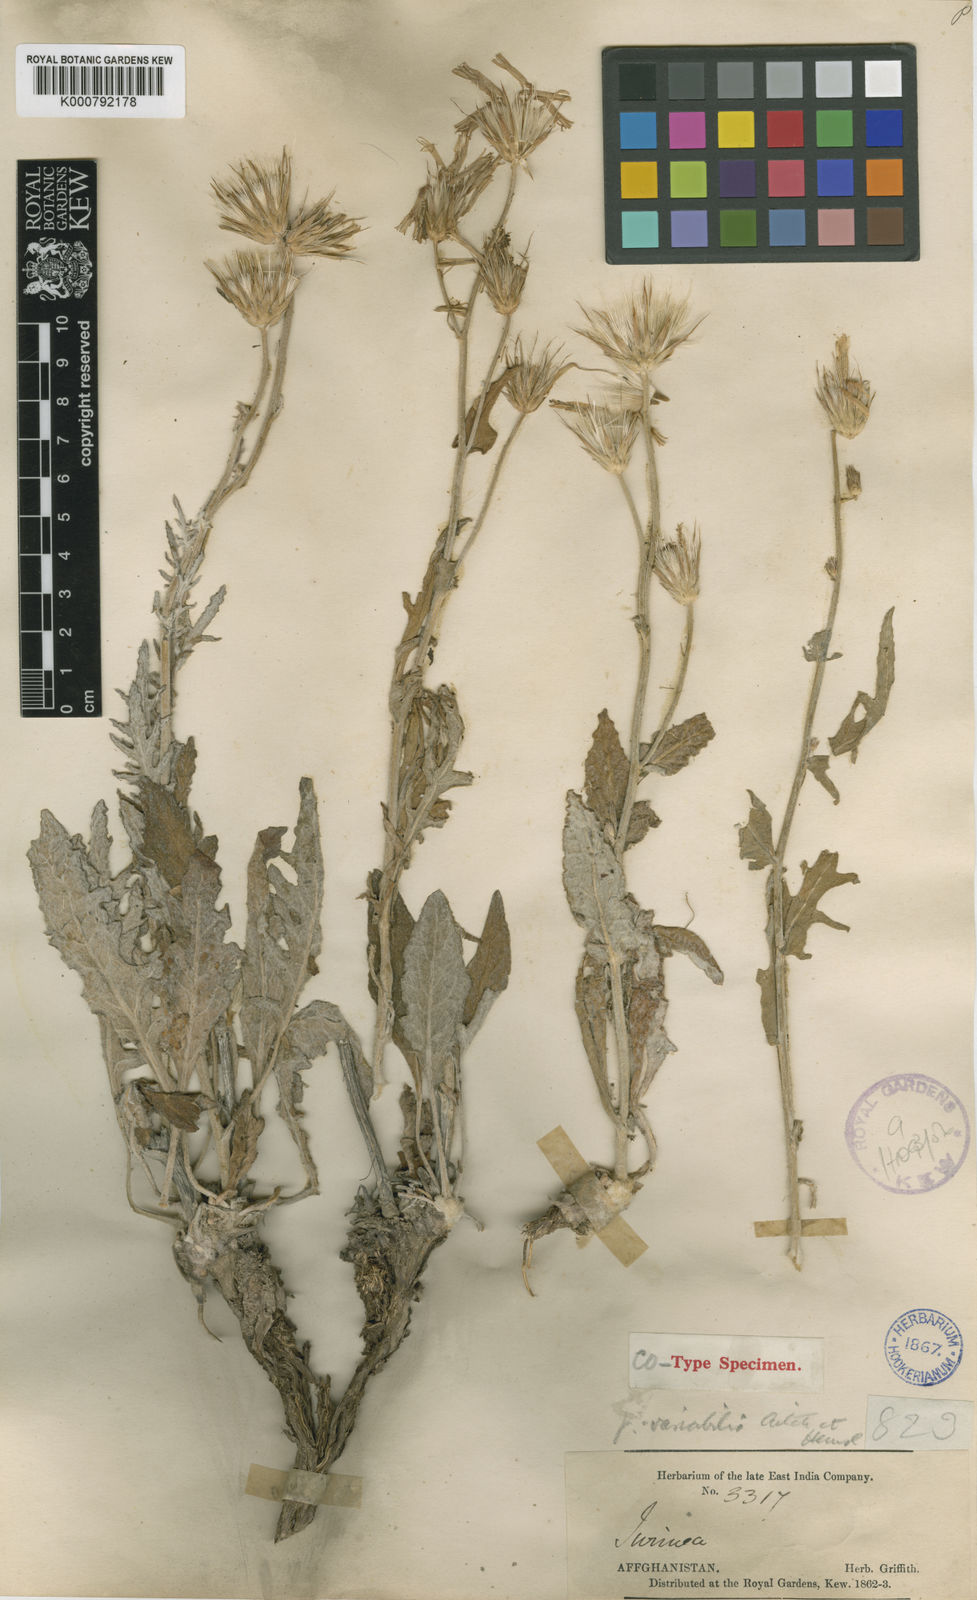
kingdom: Plantae
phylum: Tracheophyta
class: Magnoliopsida
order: Asterales
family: Asteraceae
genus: Jurinea
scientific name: Jurinea radians
